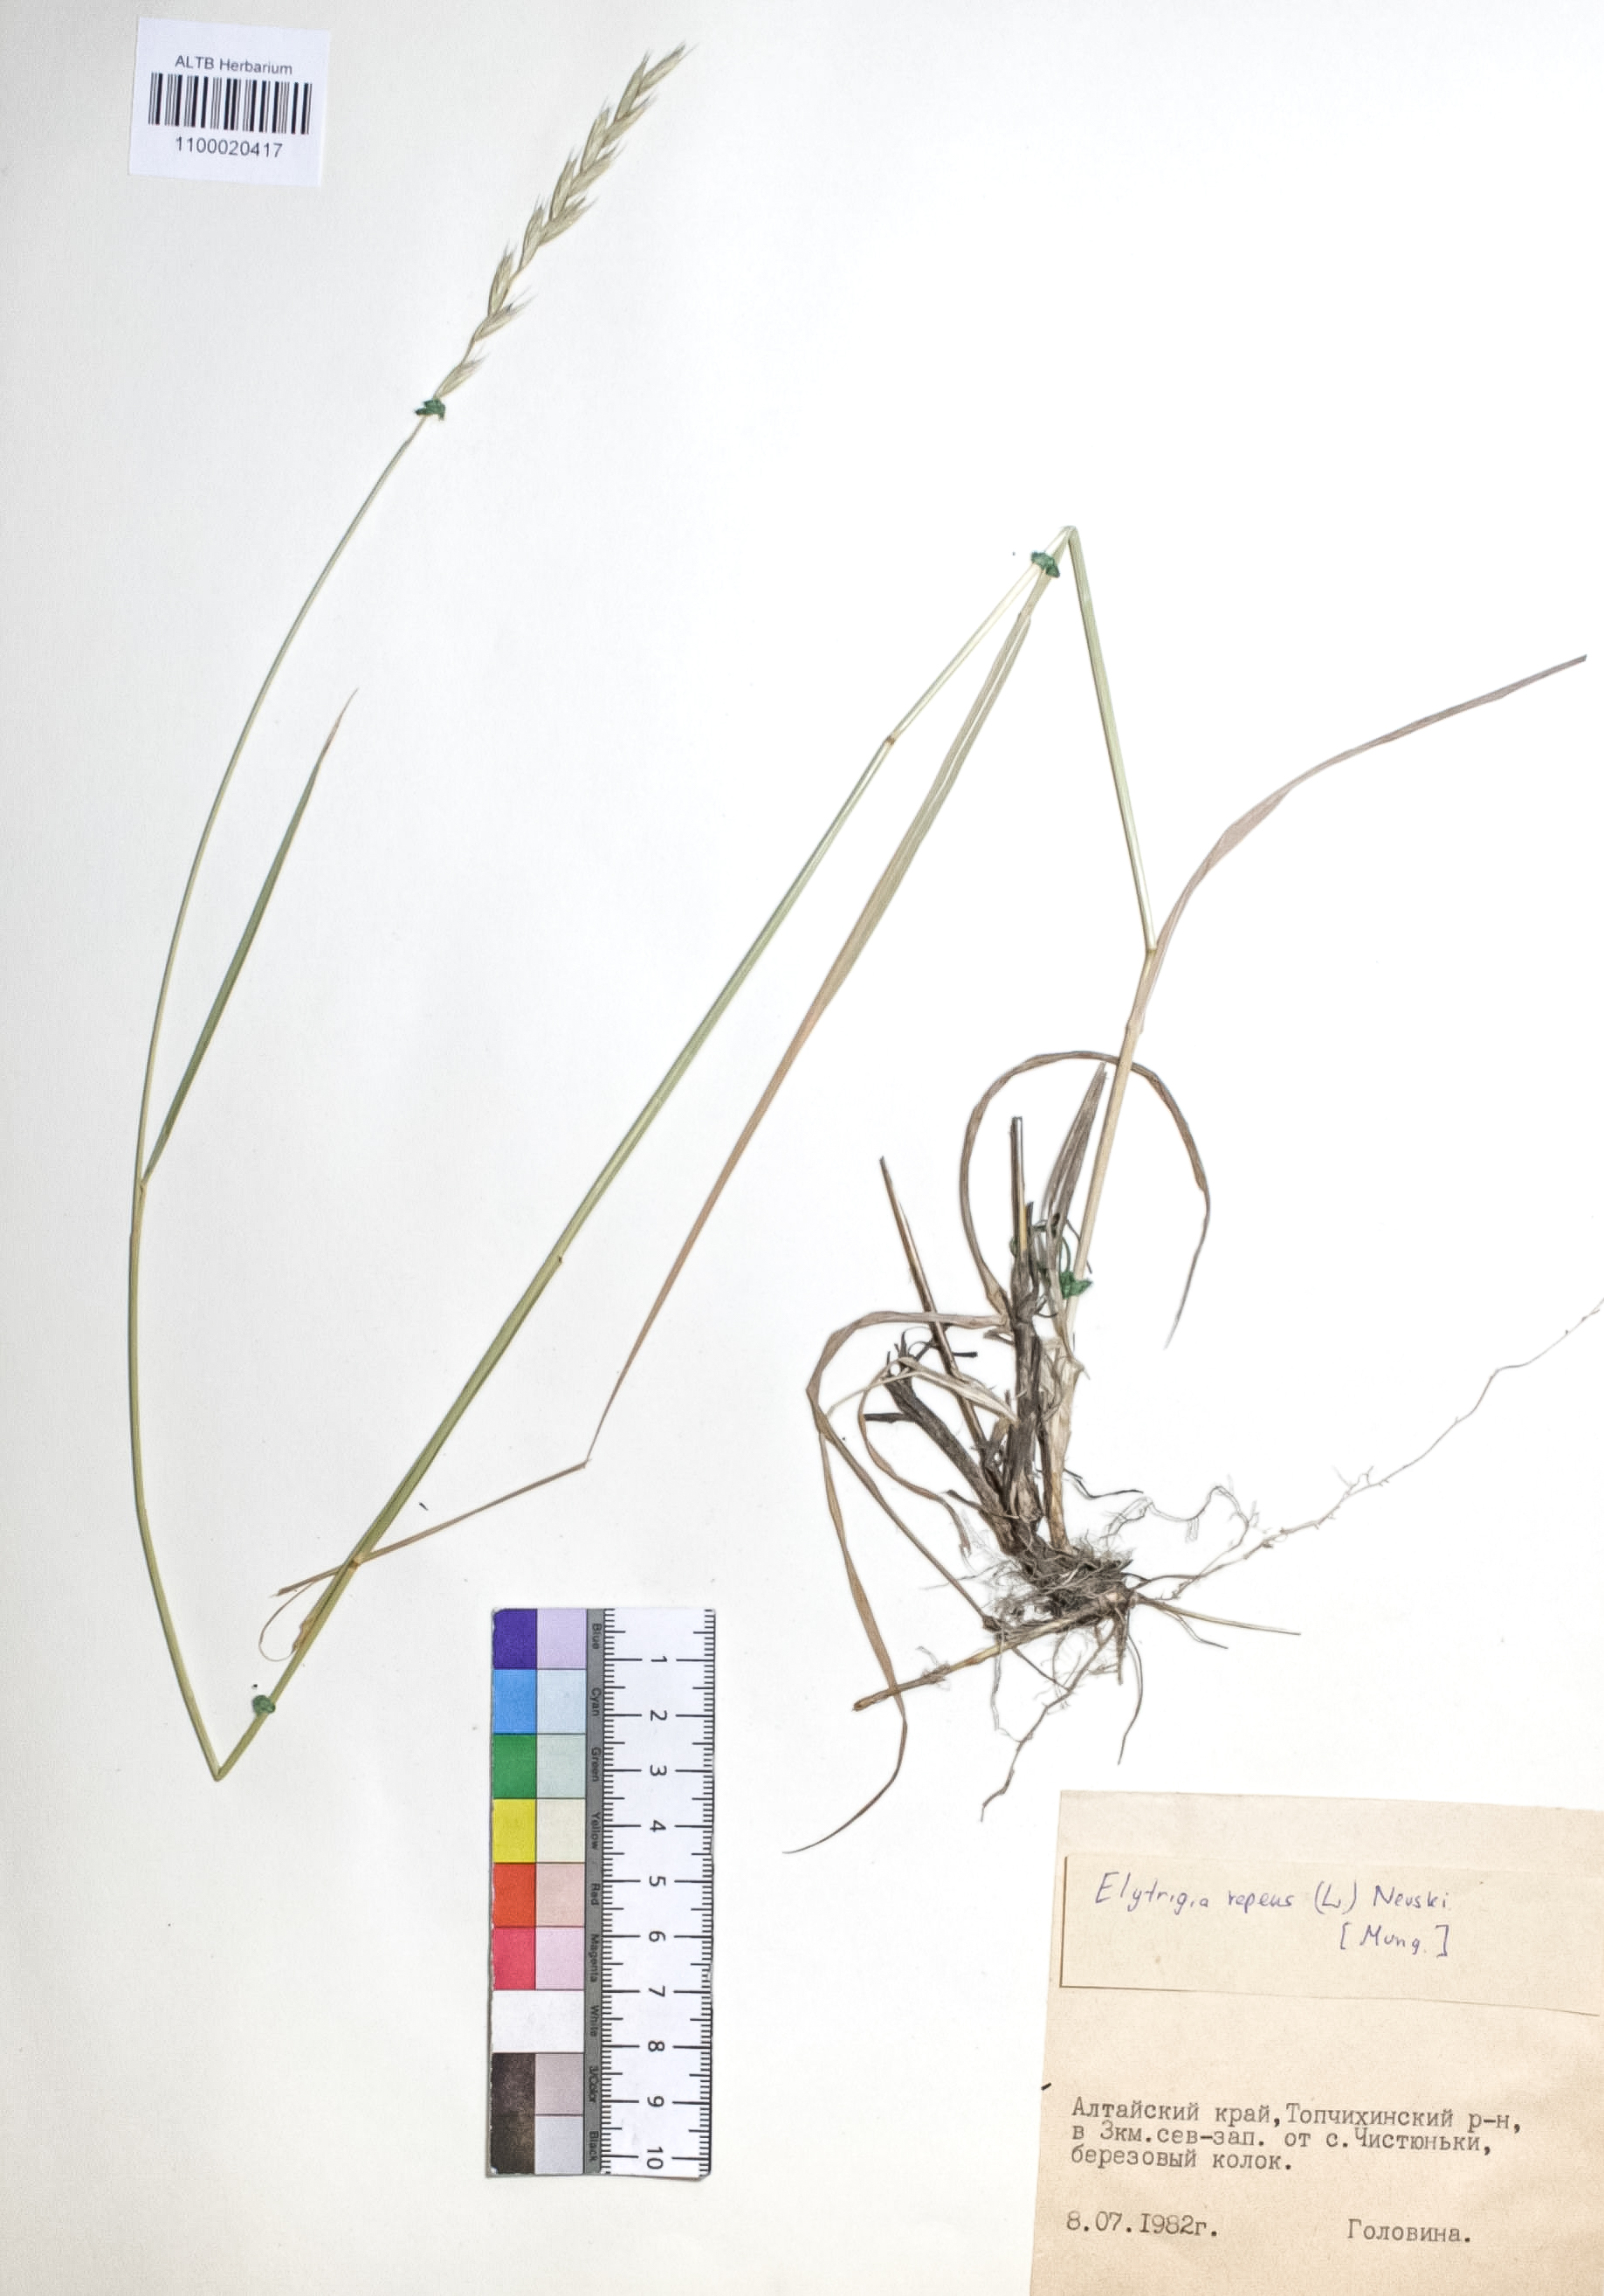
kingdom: Plantae
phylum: Tracheophyta
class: Liliopsida
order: Poales
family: Poaceae
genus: Elymus
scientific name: Elymus repens
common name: Quackgrass
